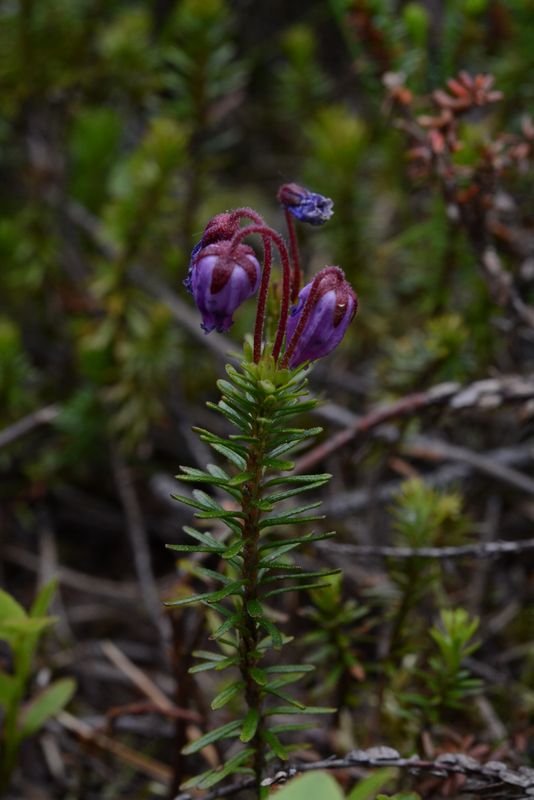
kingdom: Plantae
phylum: Tracheophyta
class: Magnoliopsida
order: Ericales
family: Ericaceae
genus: Phyllodoce
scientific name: Phyllodoce caerulea
